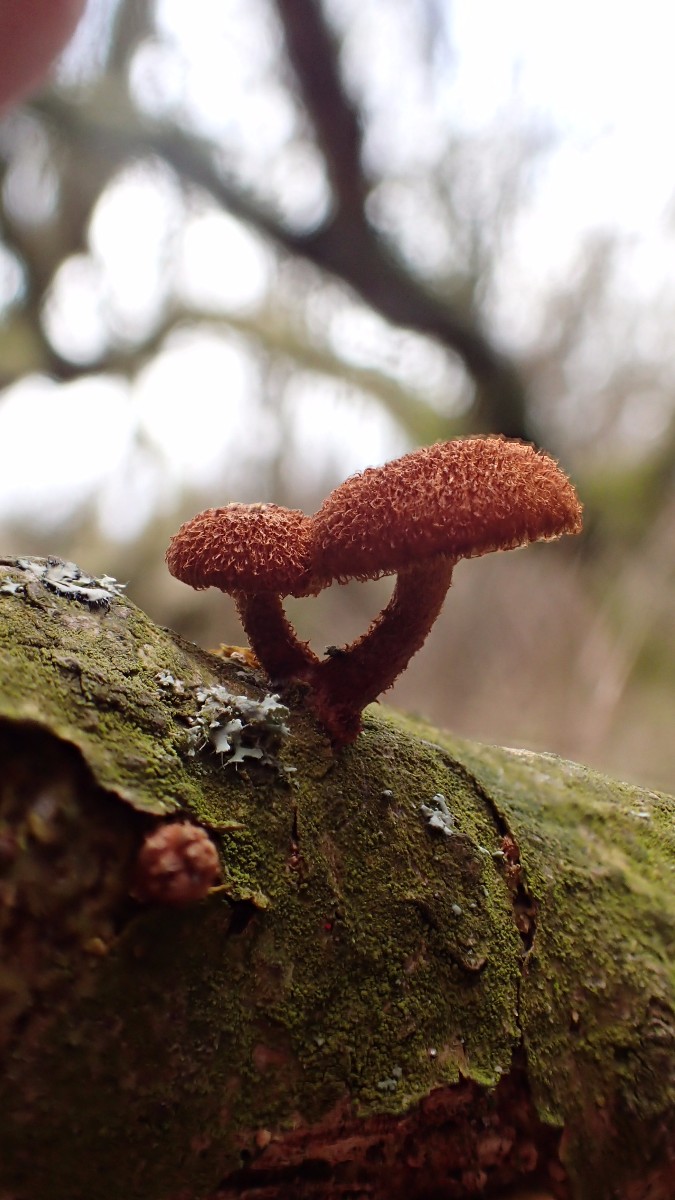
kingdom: Fungi
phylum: Basidiomycota
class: Agaricomycetes
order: Agaricales
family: Tubariaceae
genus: Phaeomarasmius
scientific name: Phaeomarasmius erinaceus
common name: spidsskælhat
